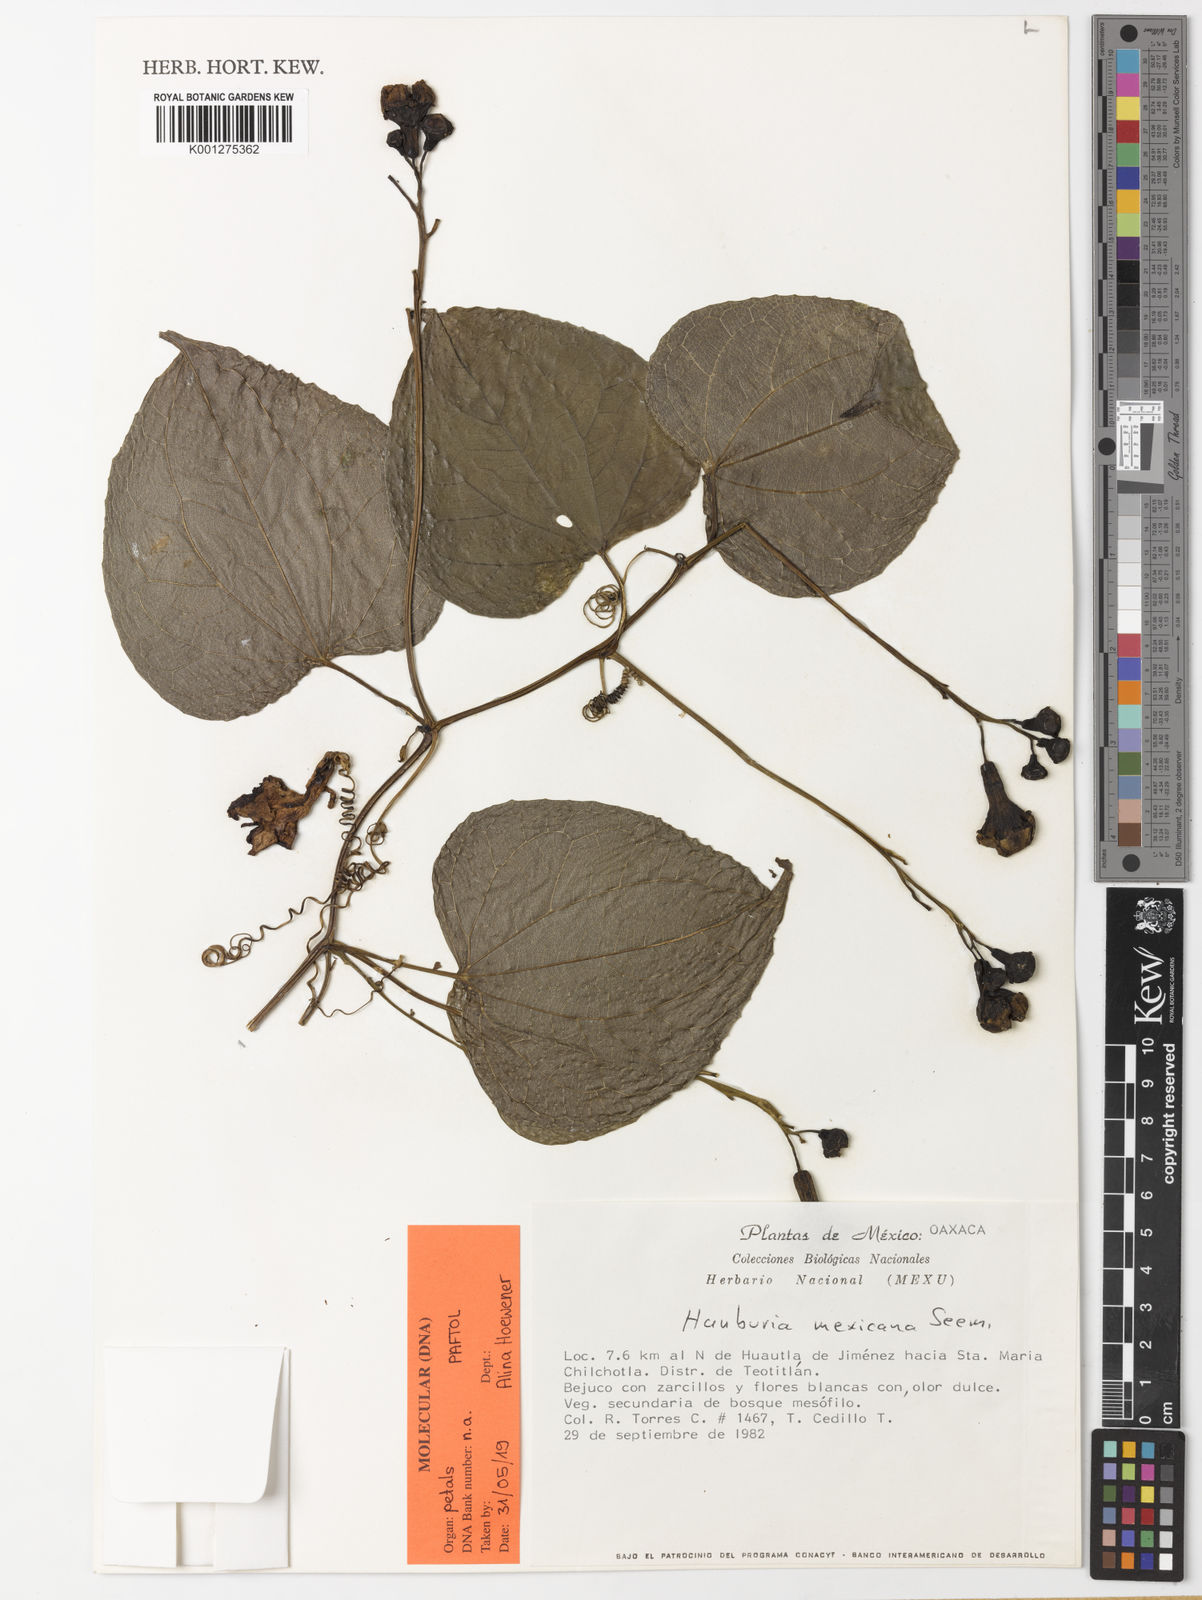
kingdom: Plantae
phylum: Tracheophyta
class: Magnoliopsida
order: Cucurbitales
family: Cucurbitaceae
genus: Hanburia
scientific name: Hanburia mexicana
